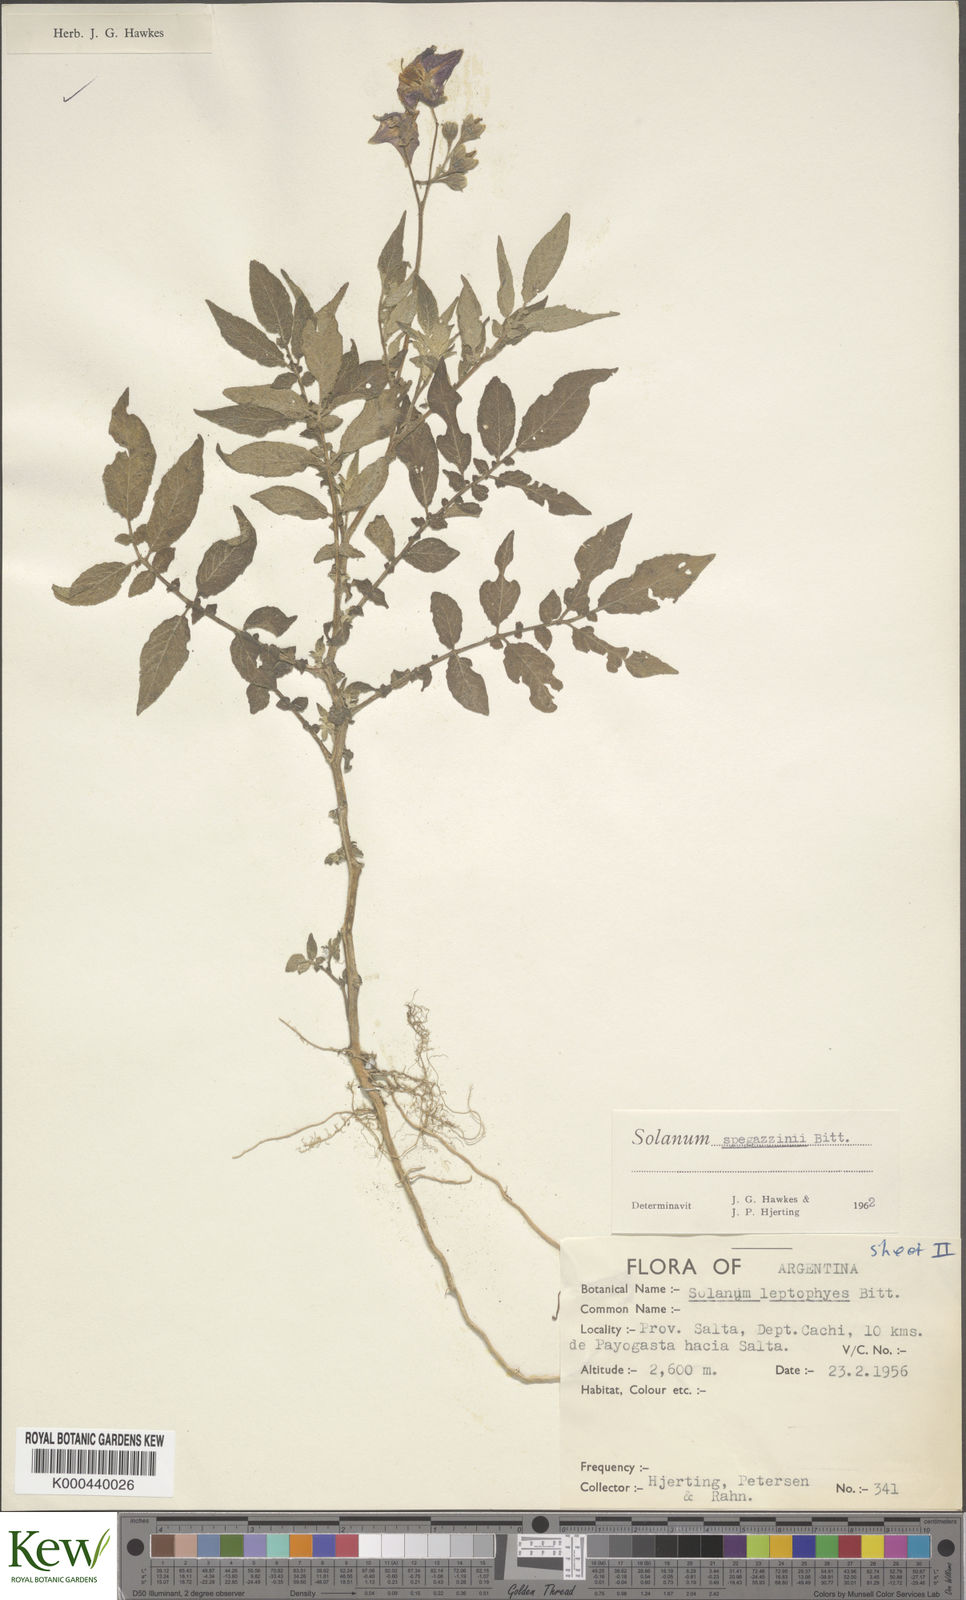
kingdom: Plantae
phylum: Tracheophyta
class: Magnoliopsida
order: Solanales
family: Solanaceae
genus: Solanum
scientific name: Solanum brevicaule
